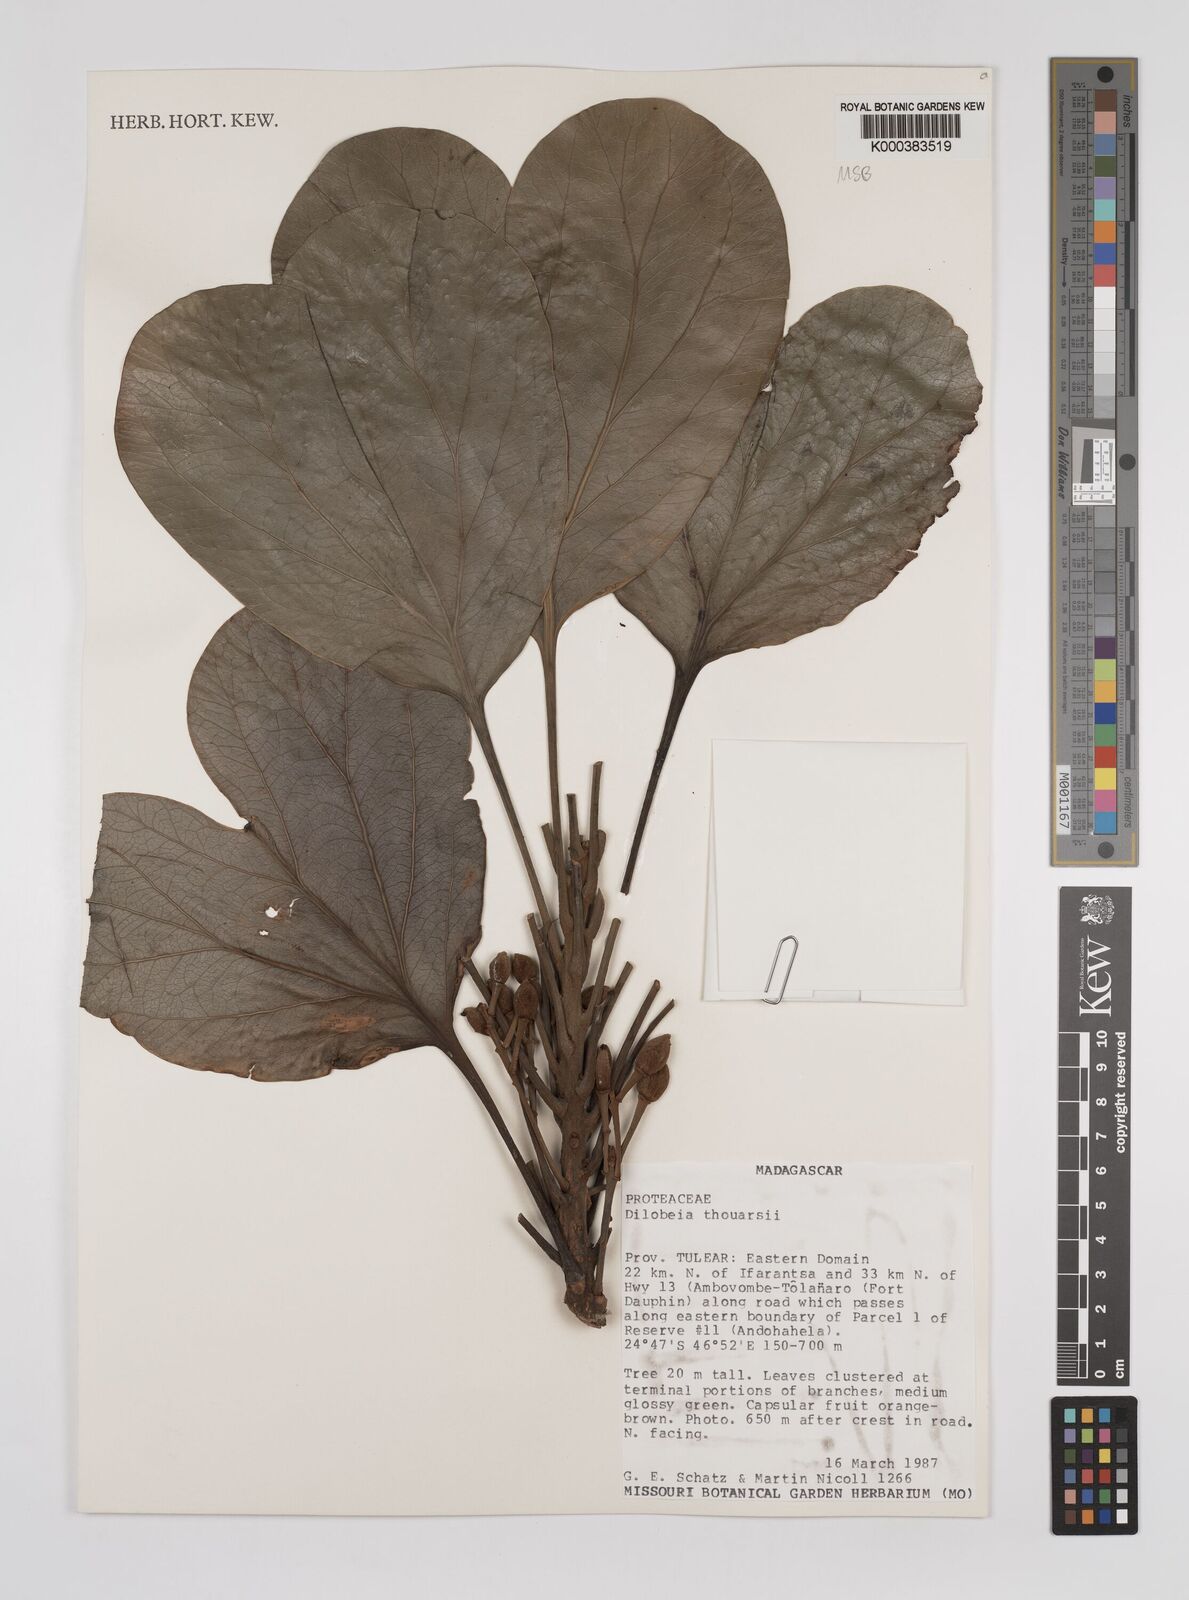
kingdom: Plantae
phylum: Tracheophyta
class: Magnoliopsida
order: Proteales
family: Proteaceae
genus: Dilobeia
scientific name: Dilobeia thouarsii
